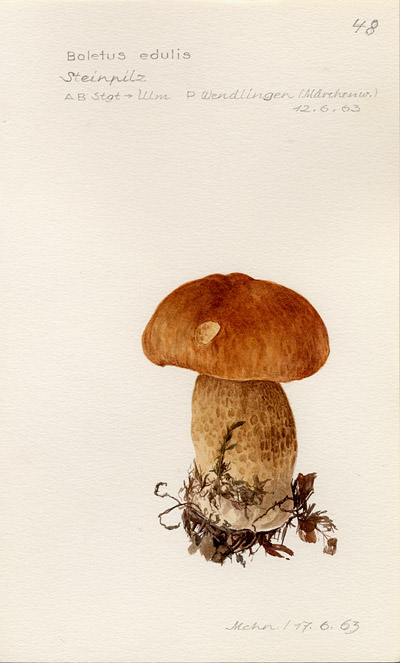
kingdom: Fungi
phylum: Basidiomycota
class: Agaricomycetes
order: Boletales
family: Boletaceae
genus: Boletus
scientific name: Boletus edulis
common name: Cep
